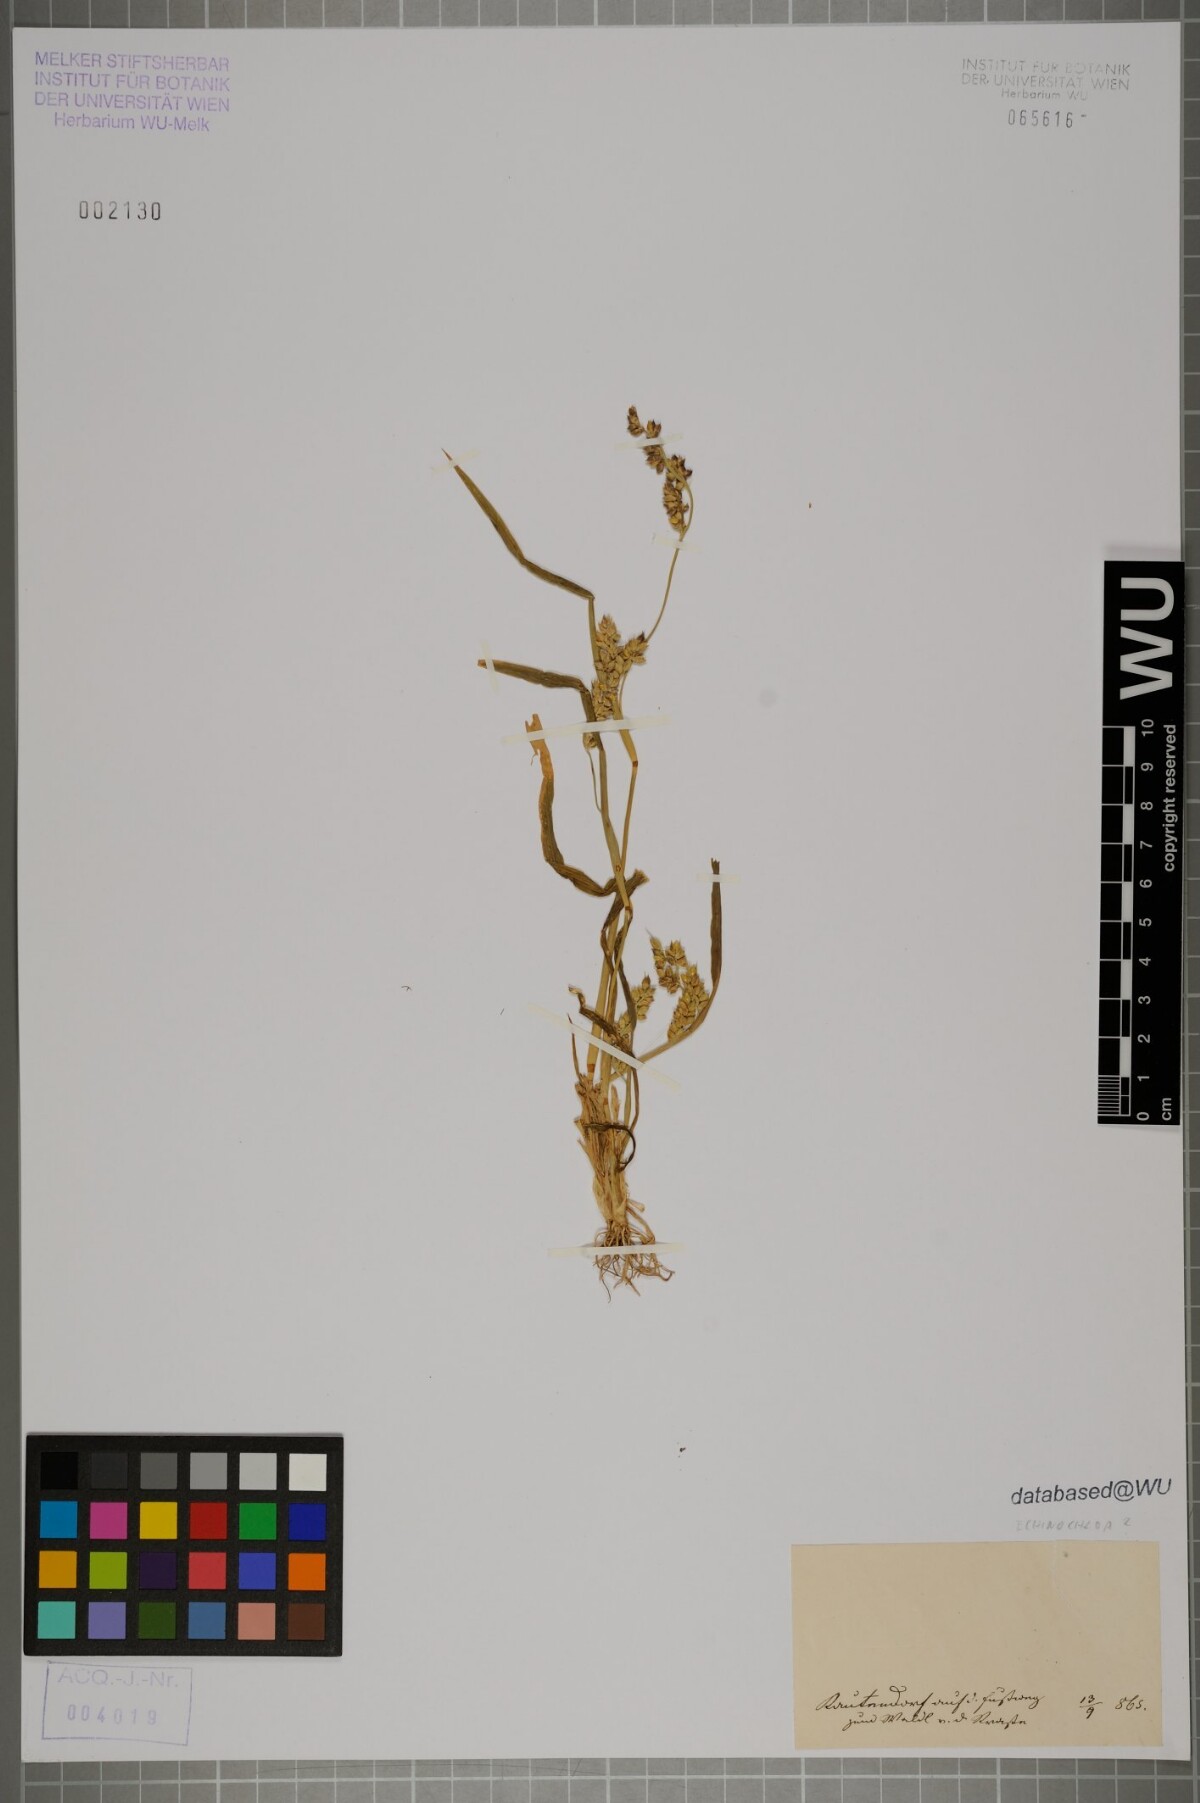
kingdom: Plantae
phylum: Tracheophyta
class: Liliopsida
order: Poales
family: Poaceae
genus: Echinochloa
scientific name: Echinochloa
